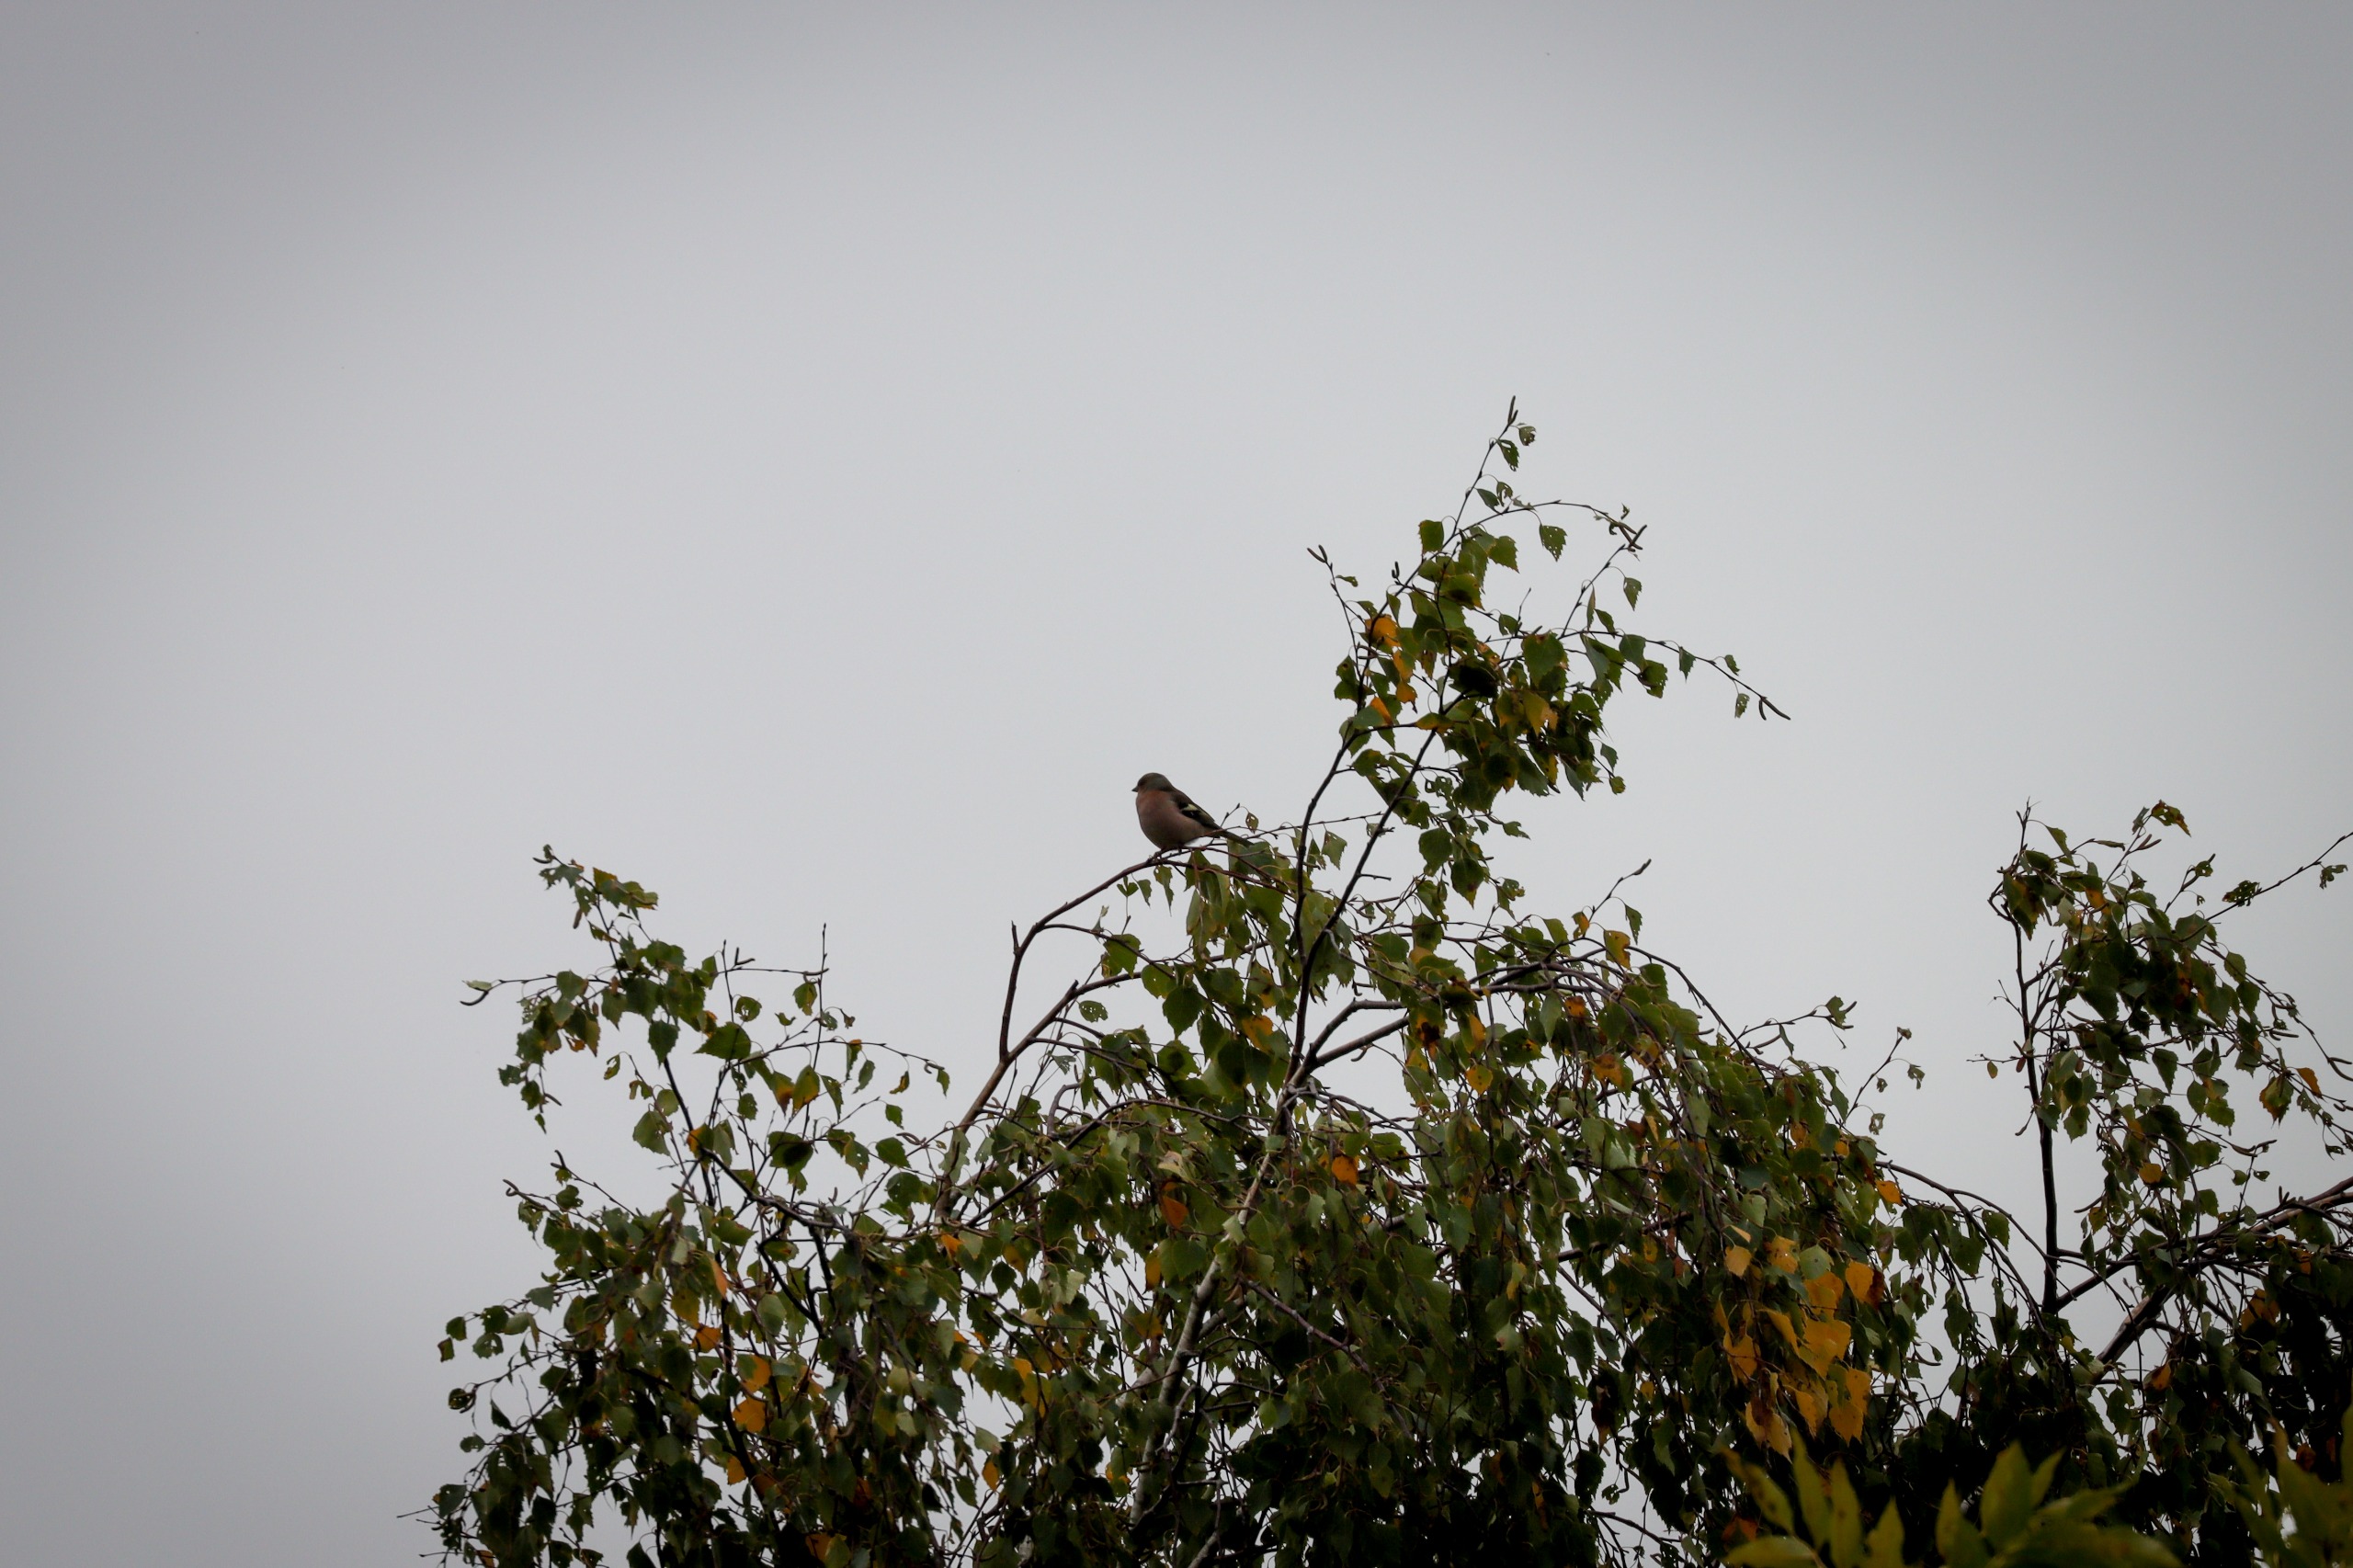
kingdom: Animalia
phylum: Chordata
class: Aves
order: Passeriformes
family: Fringillidae
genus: Fringilla
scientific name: Fringilla coelebs
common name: Bogfinke
